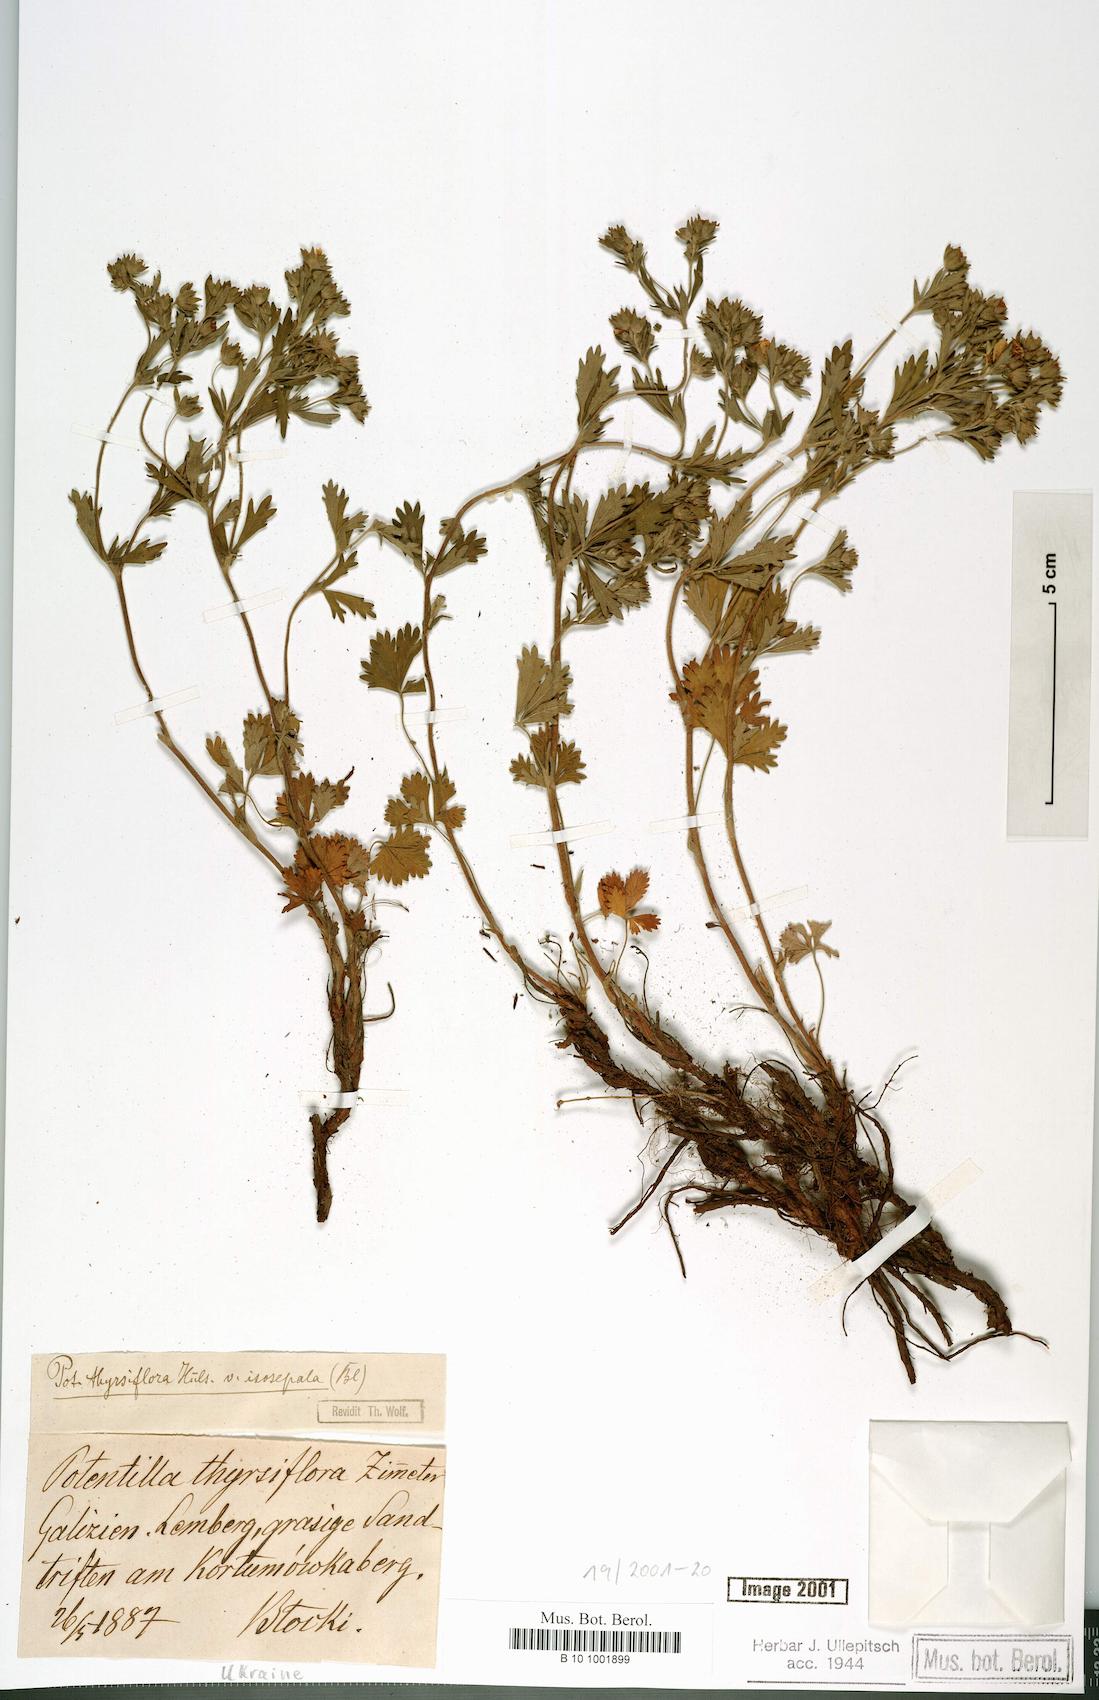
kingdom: Plantae
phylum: Tracheophyta
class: Magnoliopsida
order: Rosales
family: Rosaceae
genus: Potentilla
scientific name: Potentilla thyrsiflora
